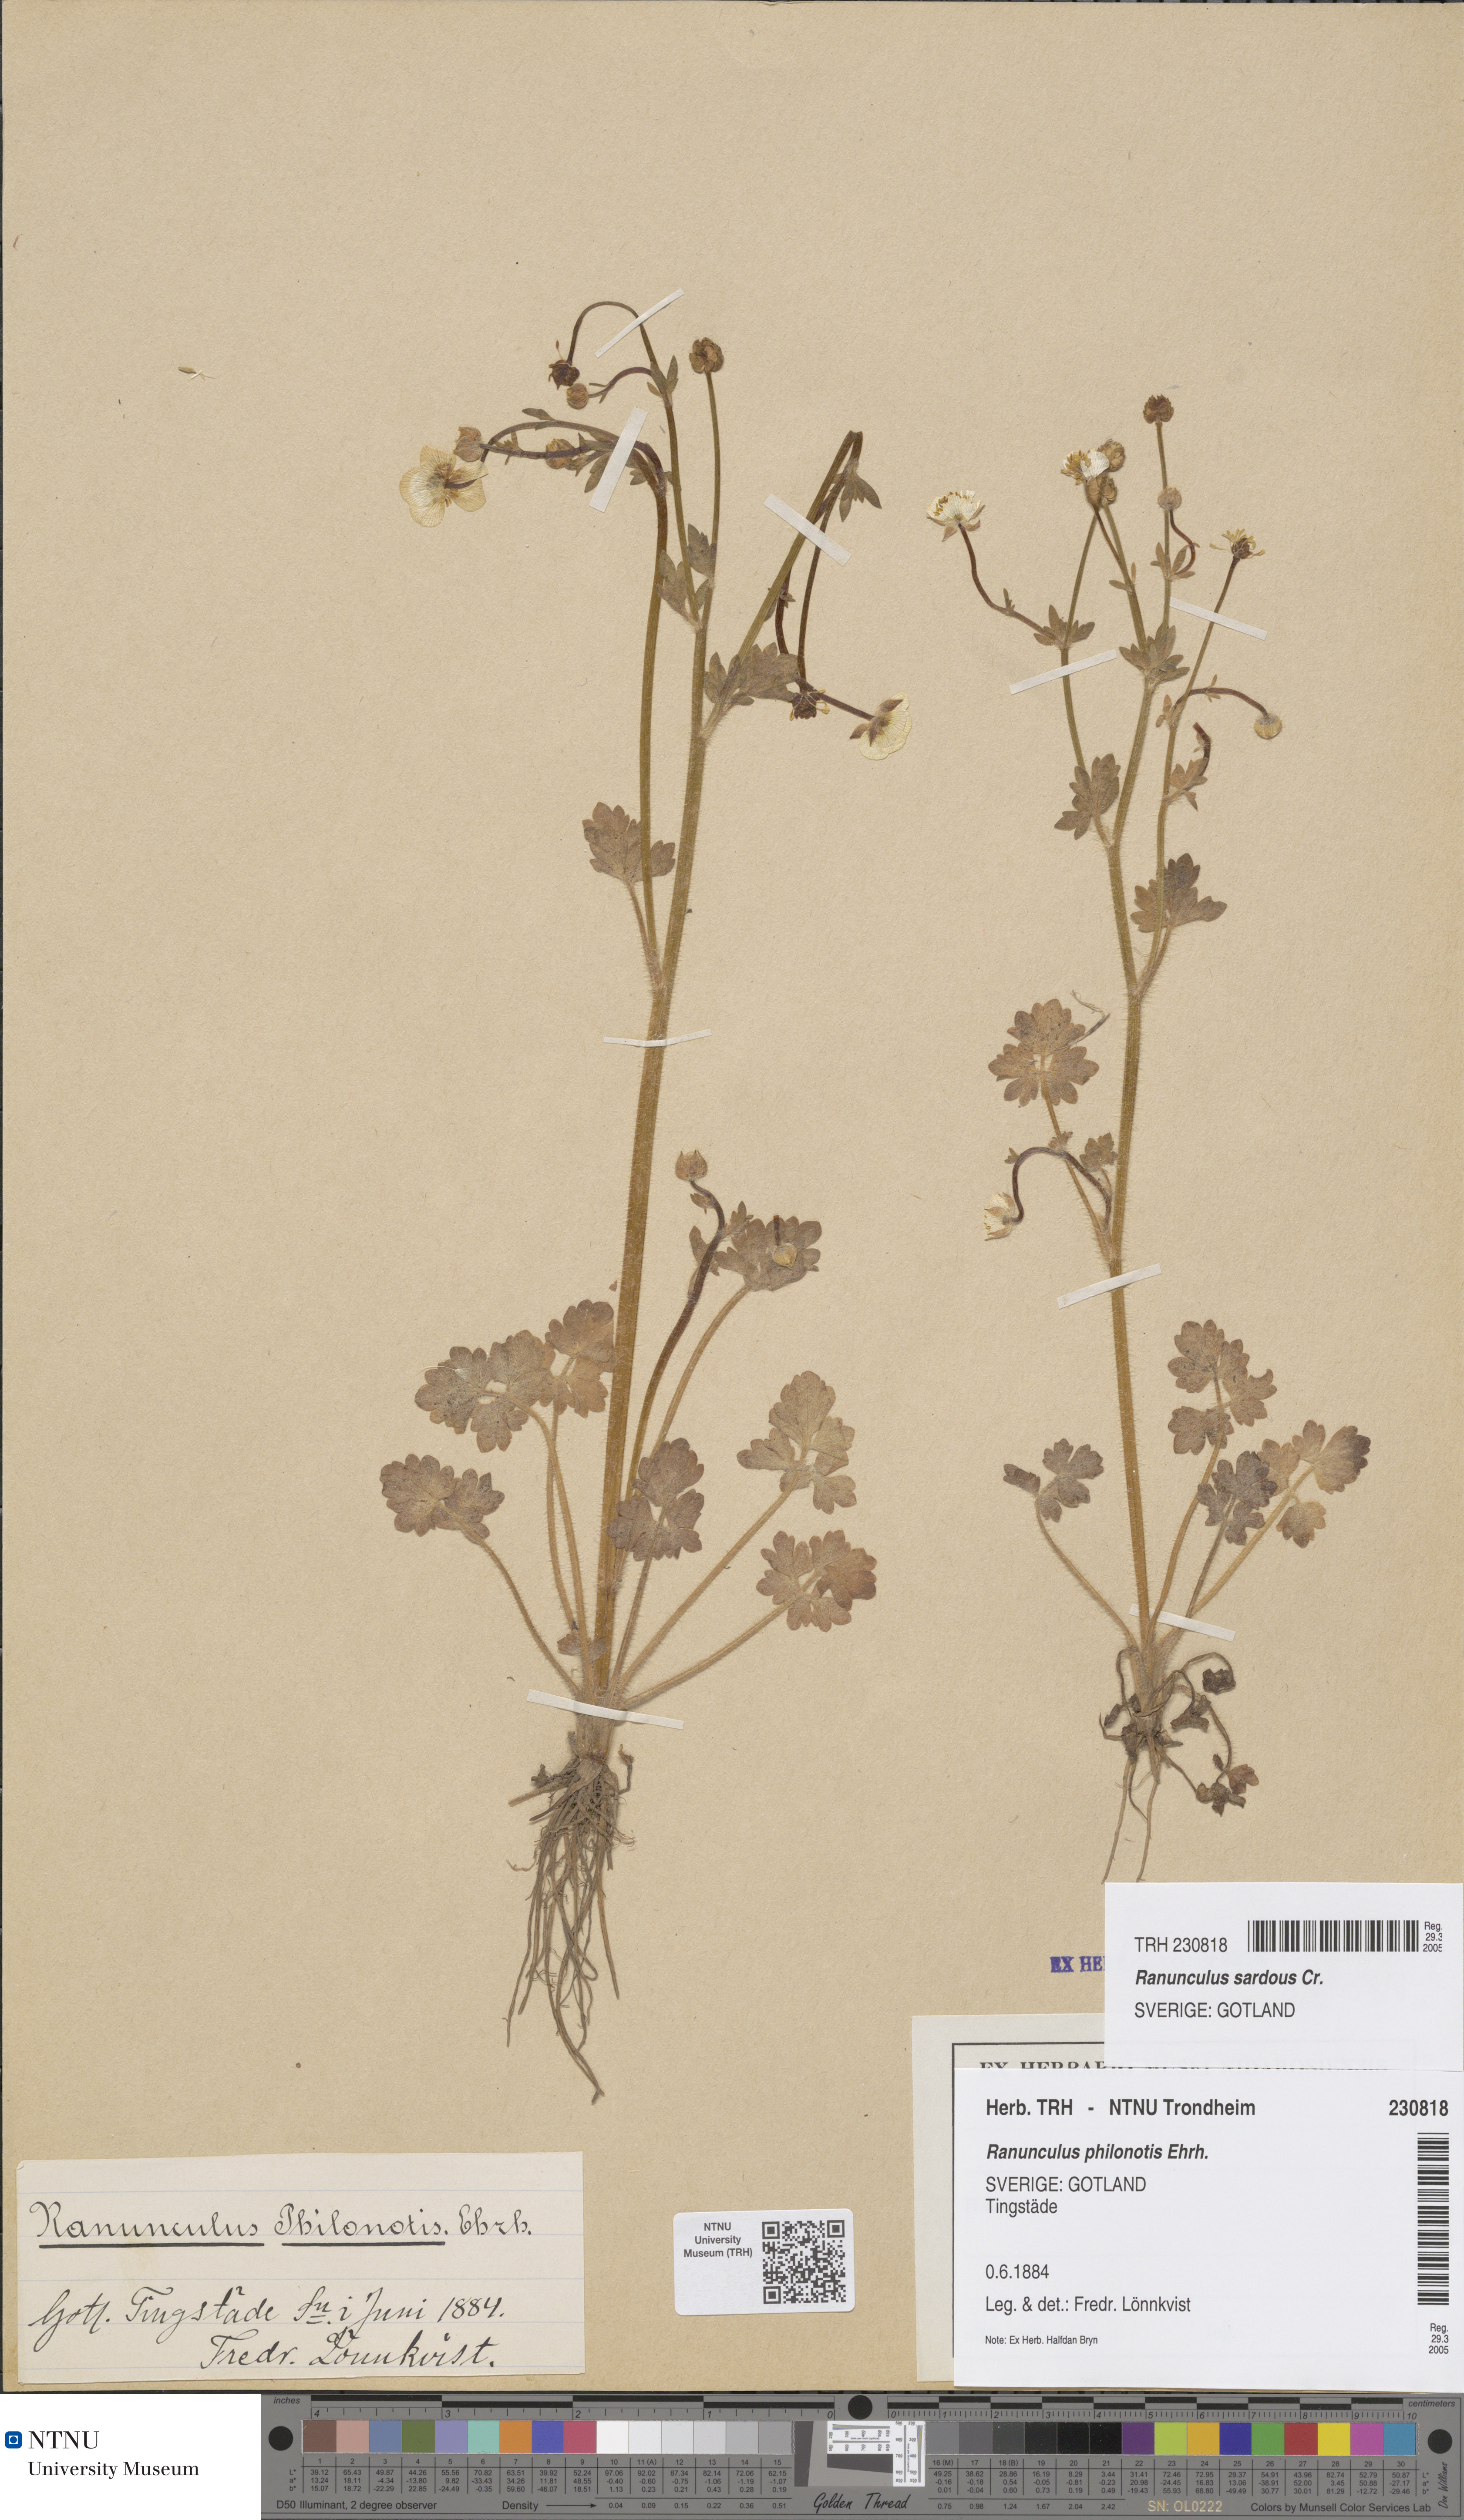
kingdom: Plantae
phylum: Tracheophyta
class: Magnoliopsida
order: Ranunculales
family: Ranunculaceae
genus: Ranunculus
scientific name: Ranunculus sardous
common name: Hairy buttercup
